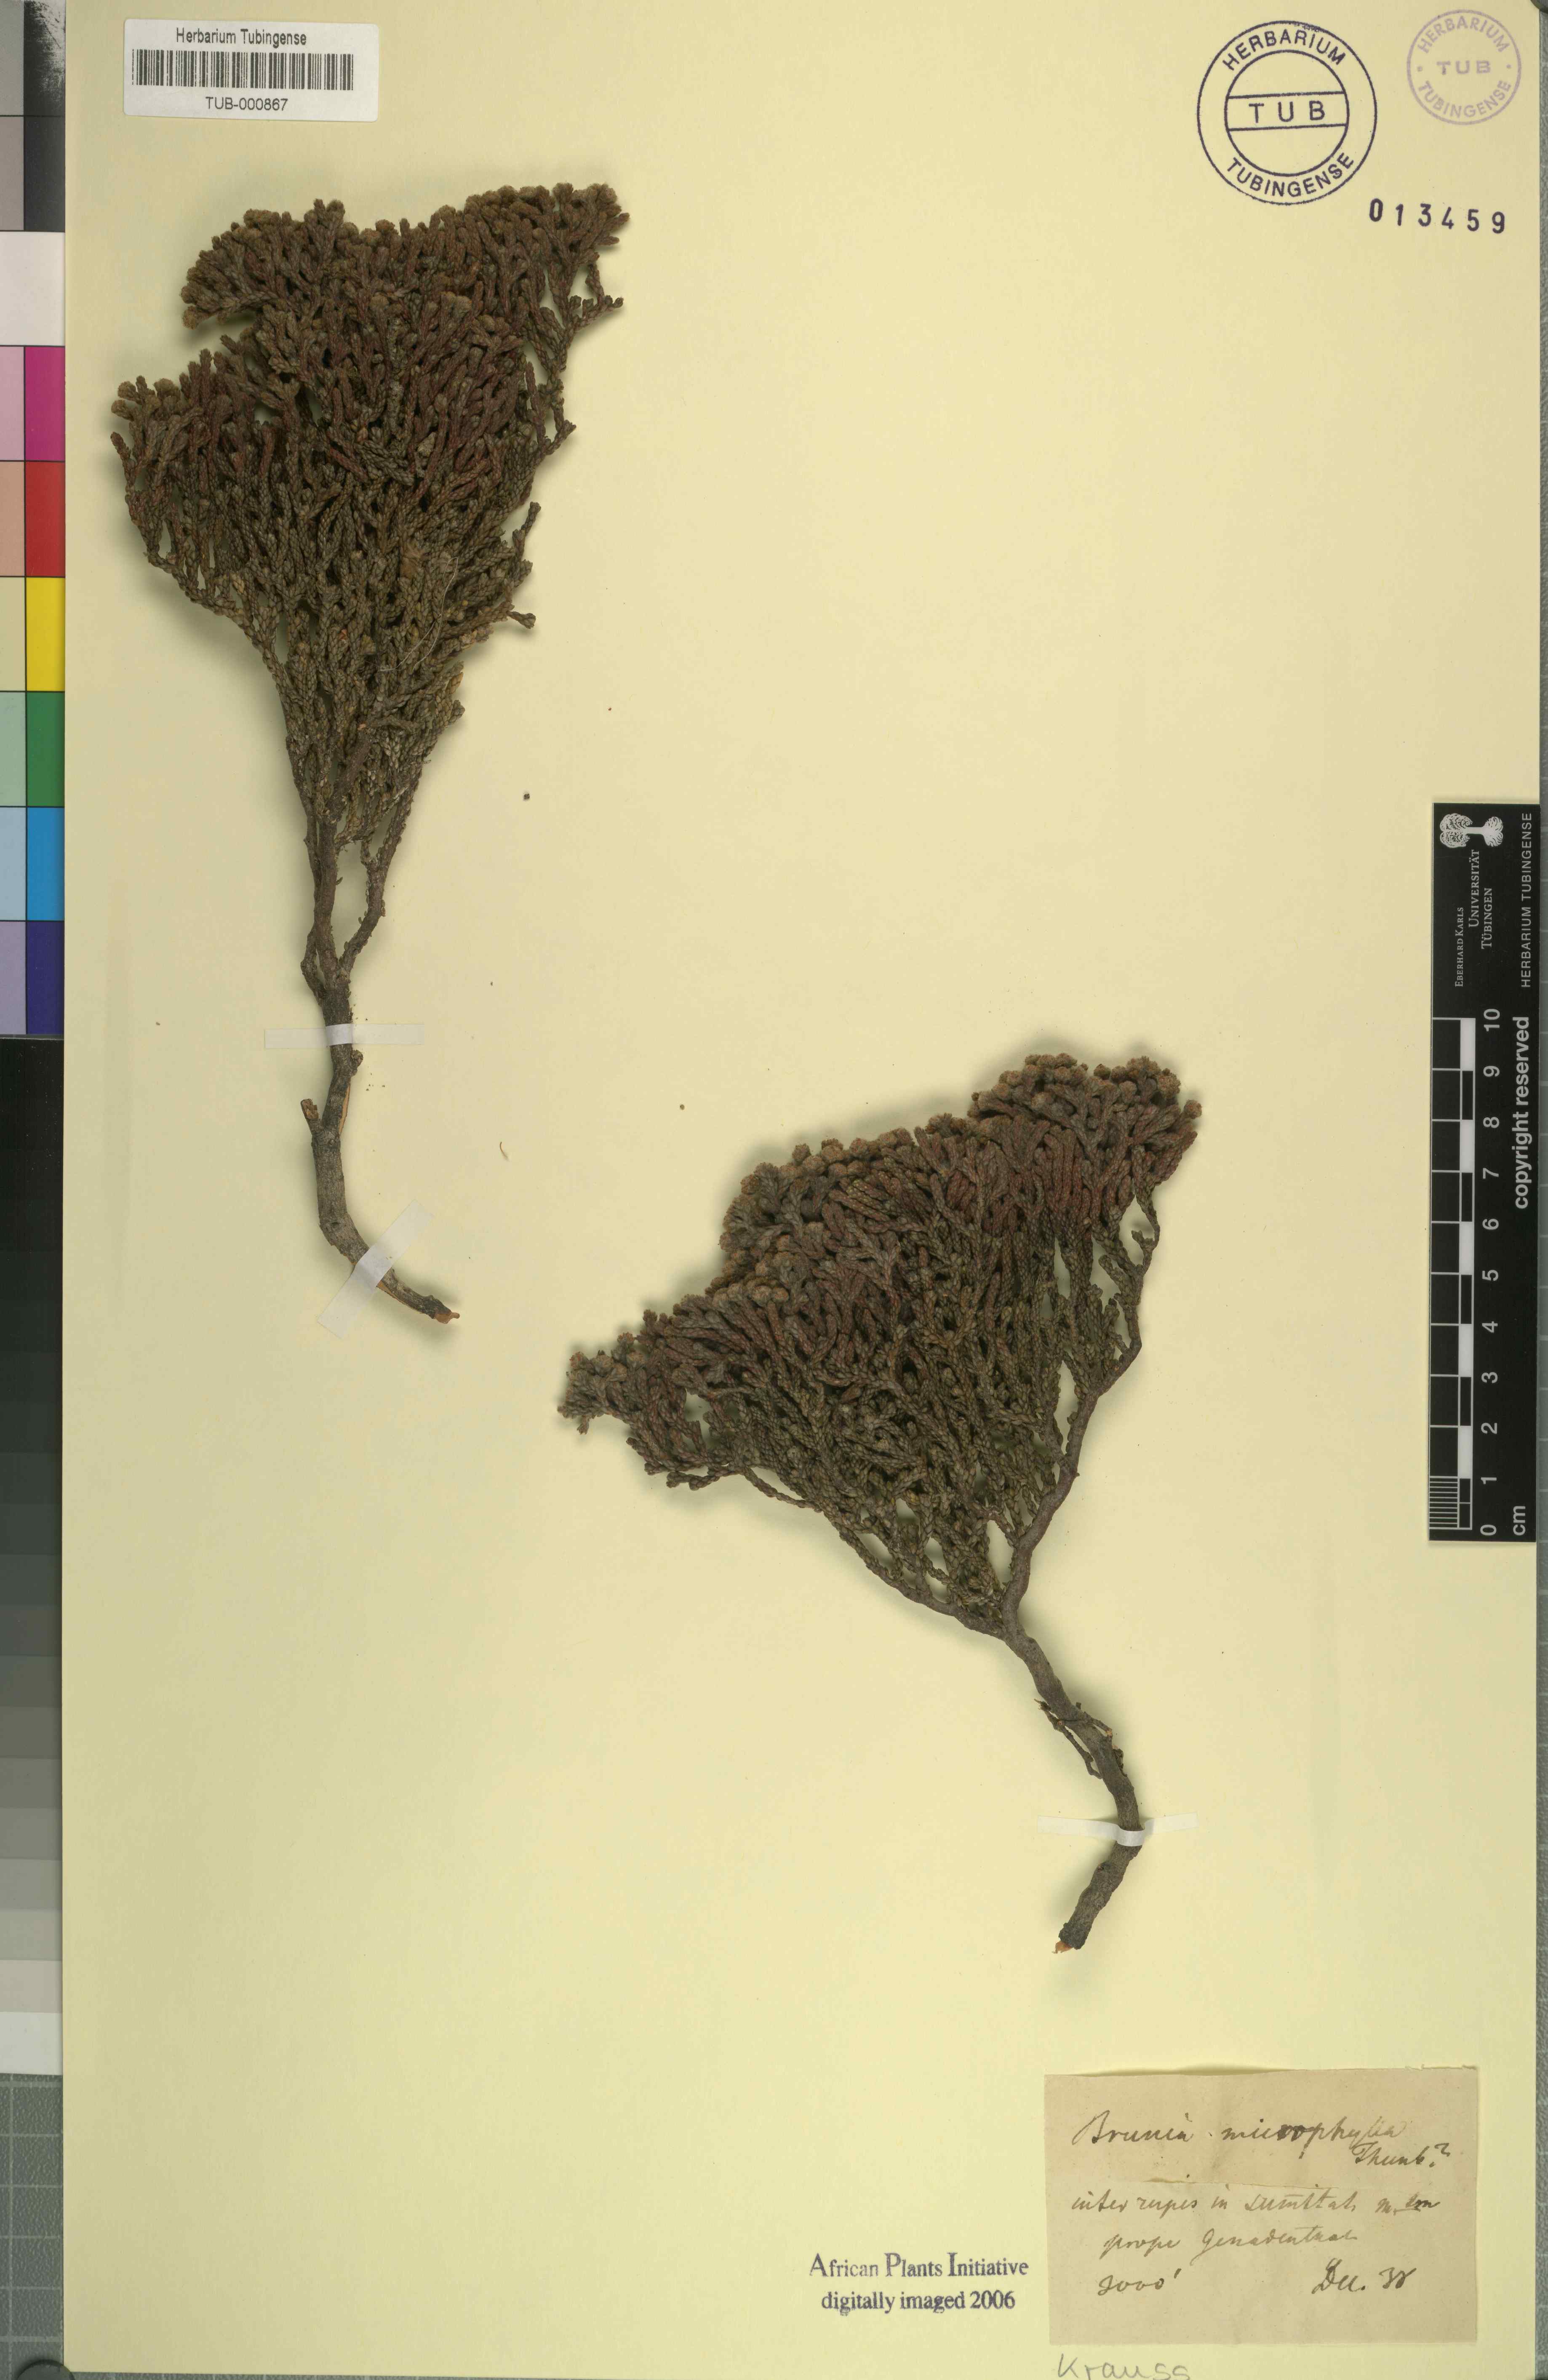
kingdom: Plantae
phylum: Tracheophyta
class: Magnoliopsida
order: Bruniales
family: Bruniaceae
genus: Brunia
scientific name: Brunia microphylla
